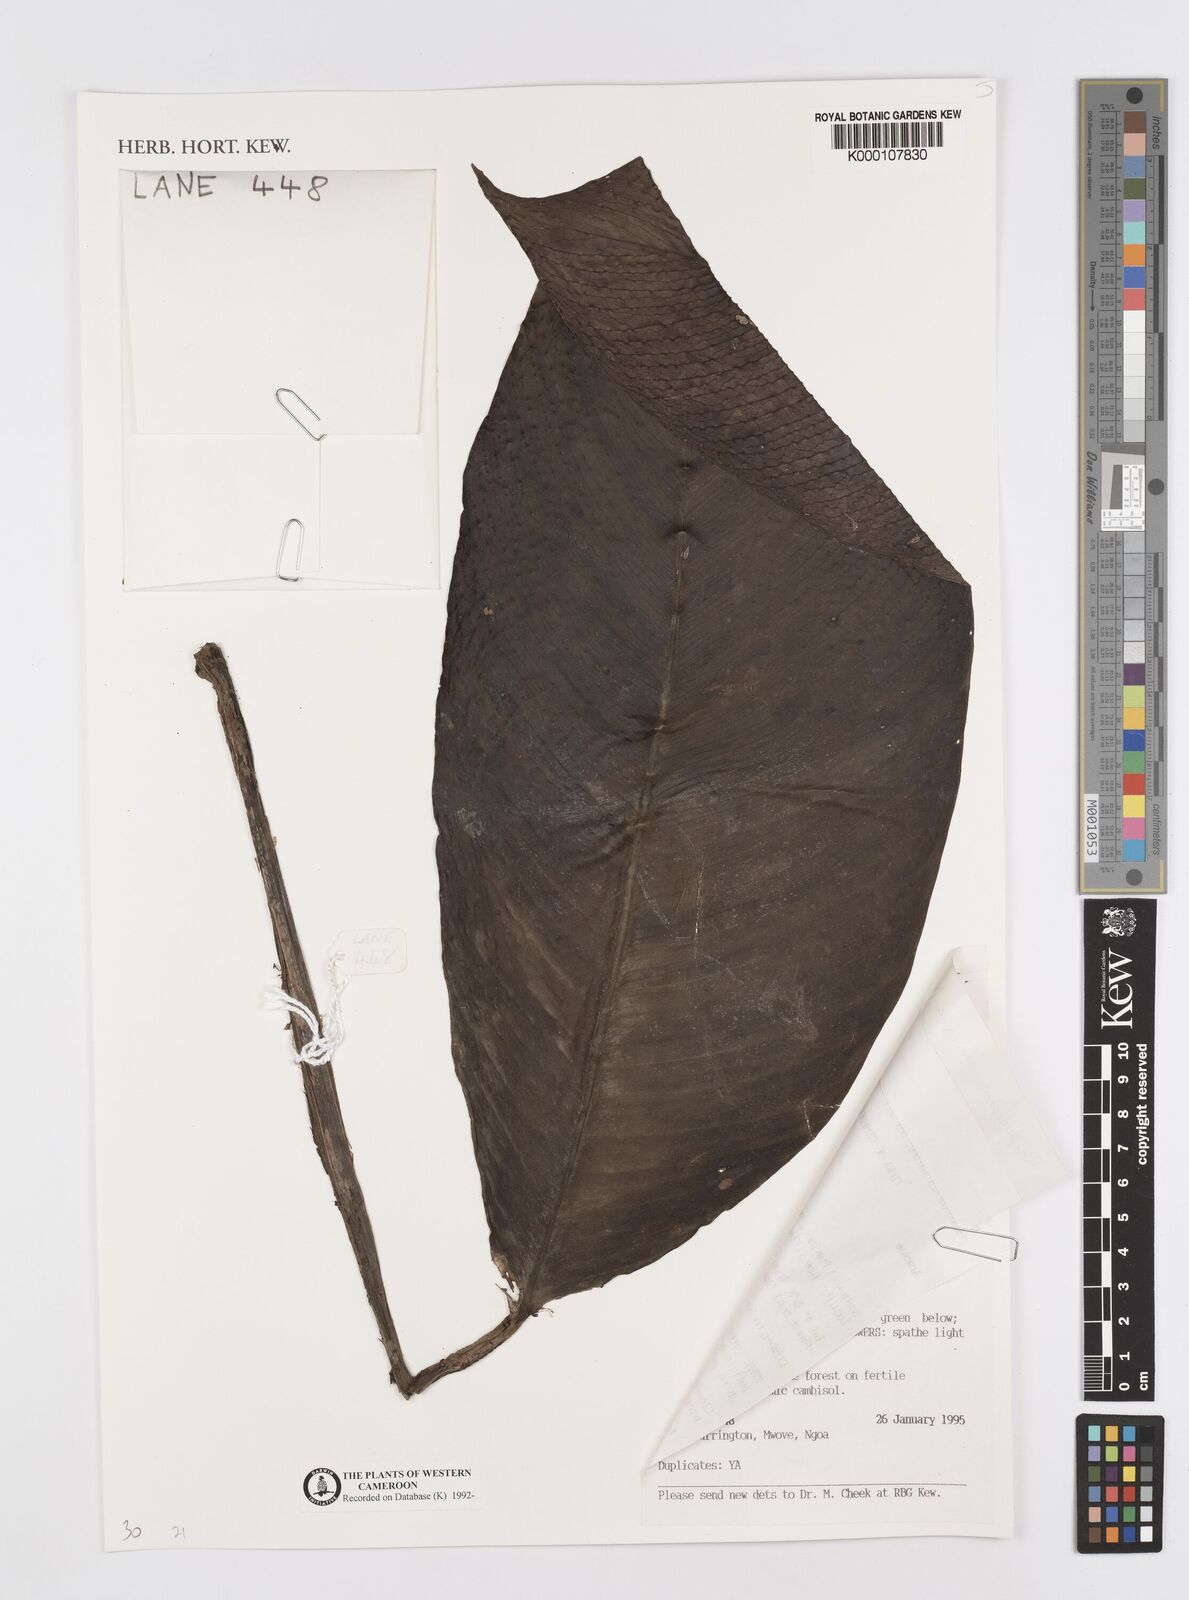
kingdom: Plantae
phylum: Tracheophyta
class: Liliopsida
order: Alismatales
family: Araceae
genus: Rhaphidophora
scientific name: Rhaphidophora africana
